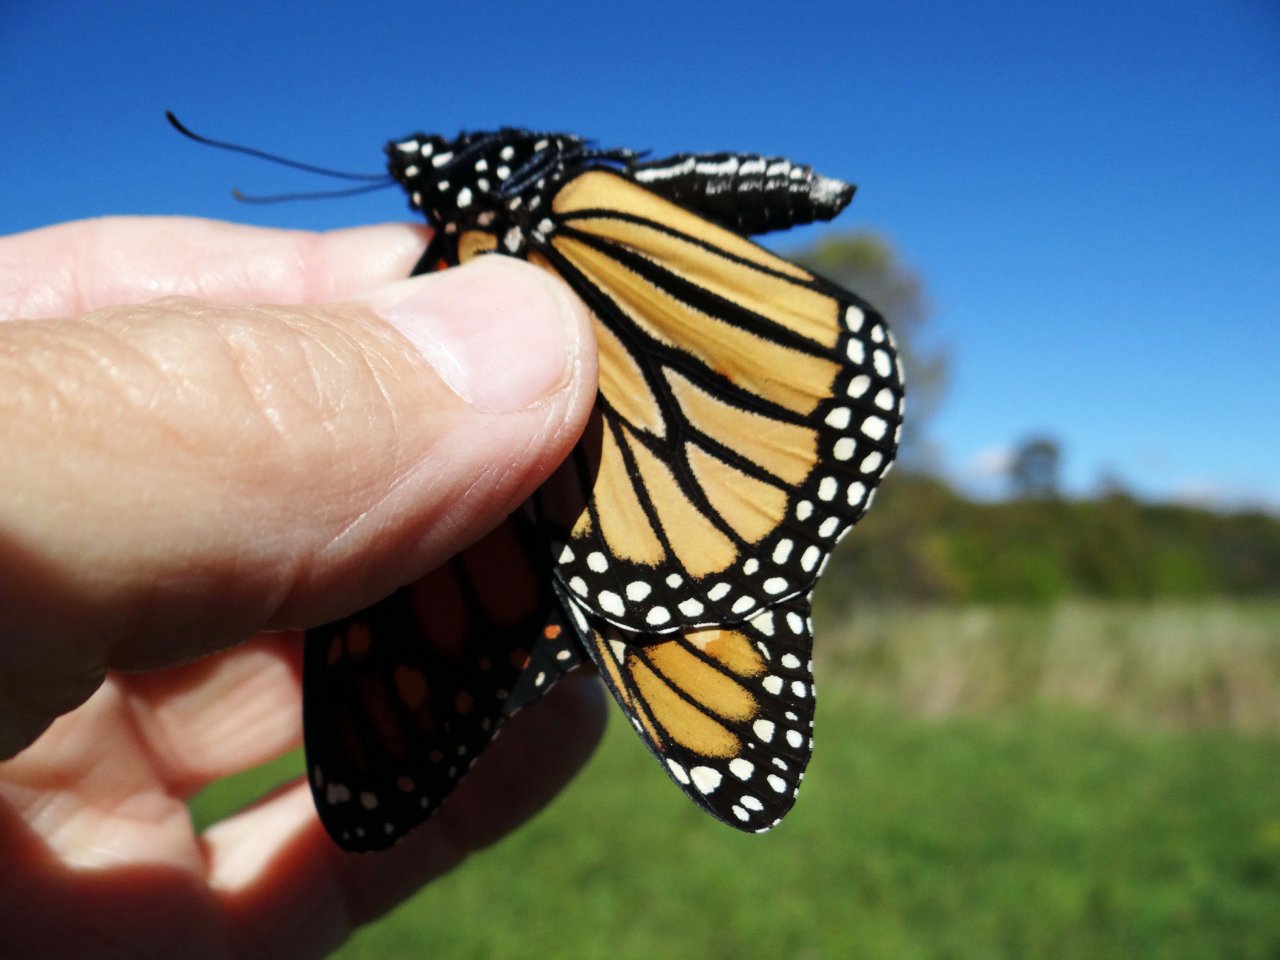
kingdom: Animalia
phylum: Arthropoda
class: Insecta
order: Lepidoptera
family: Nymphalidae
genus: Danaus
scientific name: Danaus plexippus
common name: Monarch
